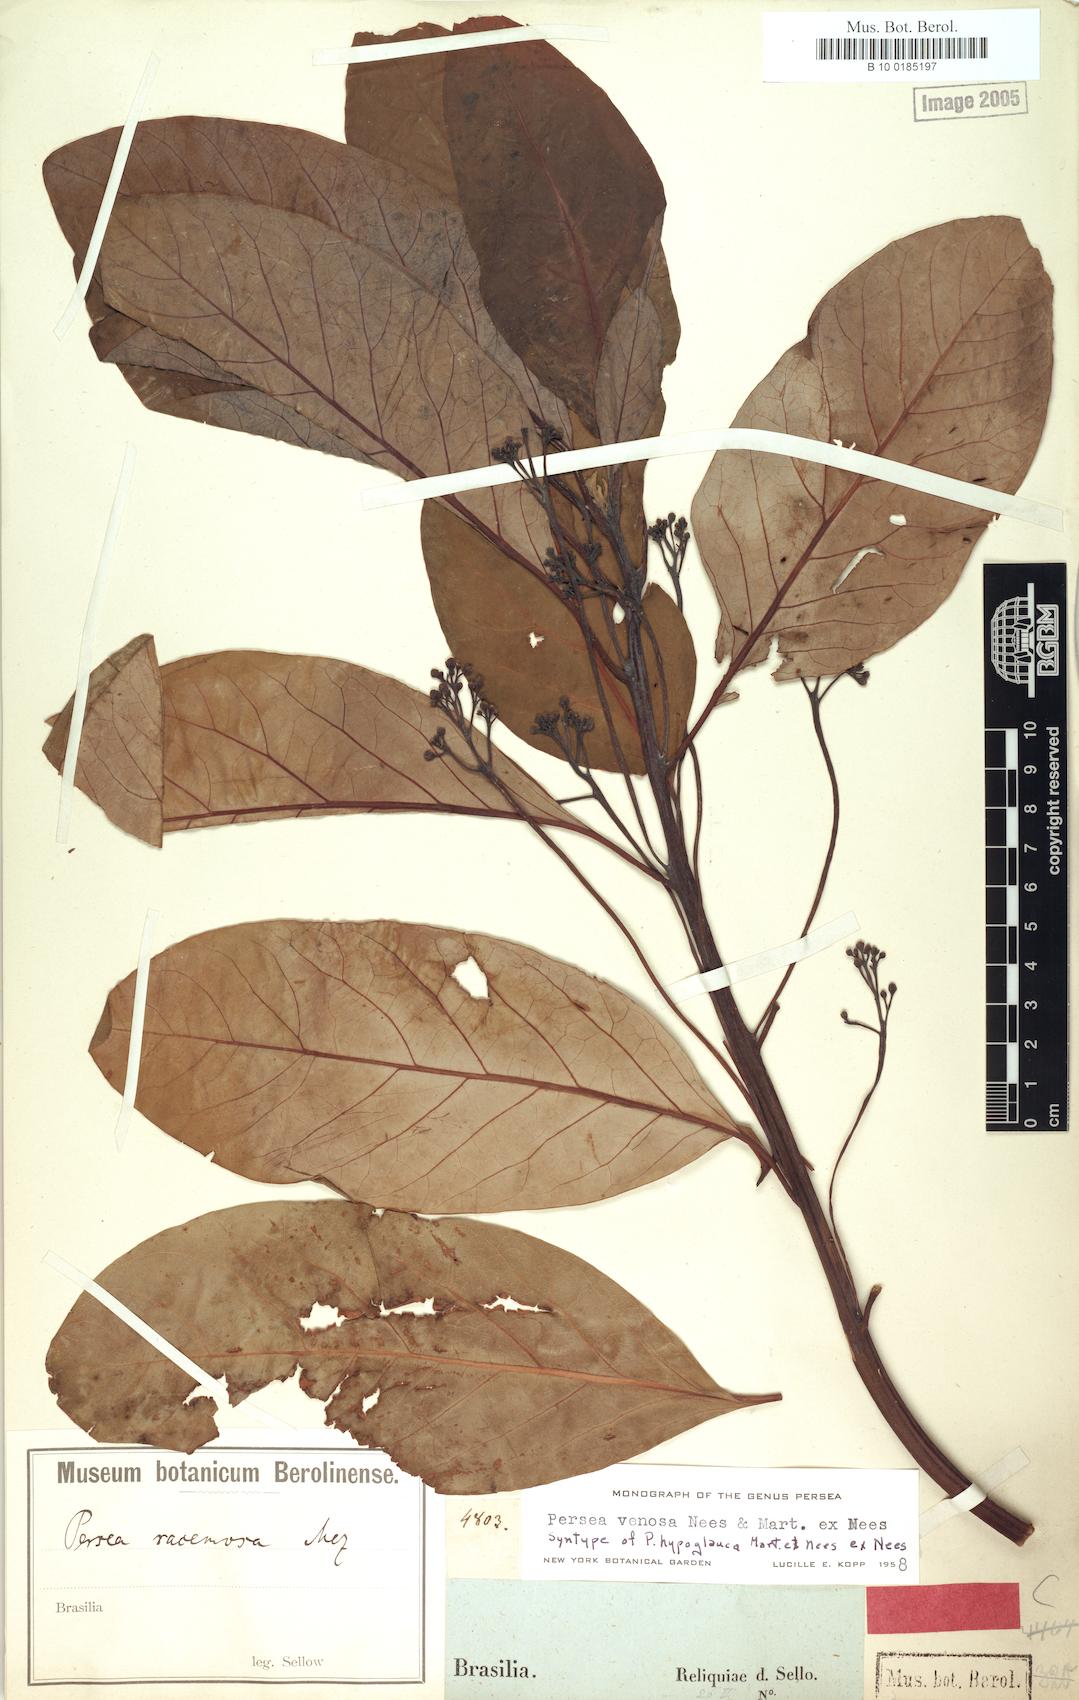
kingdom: Plantae
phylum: Tracheophyta
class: Magnoliopsida
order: Laurales
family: Lauraceae
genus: Persea
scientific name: Persea venosa
